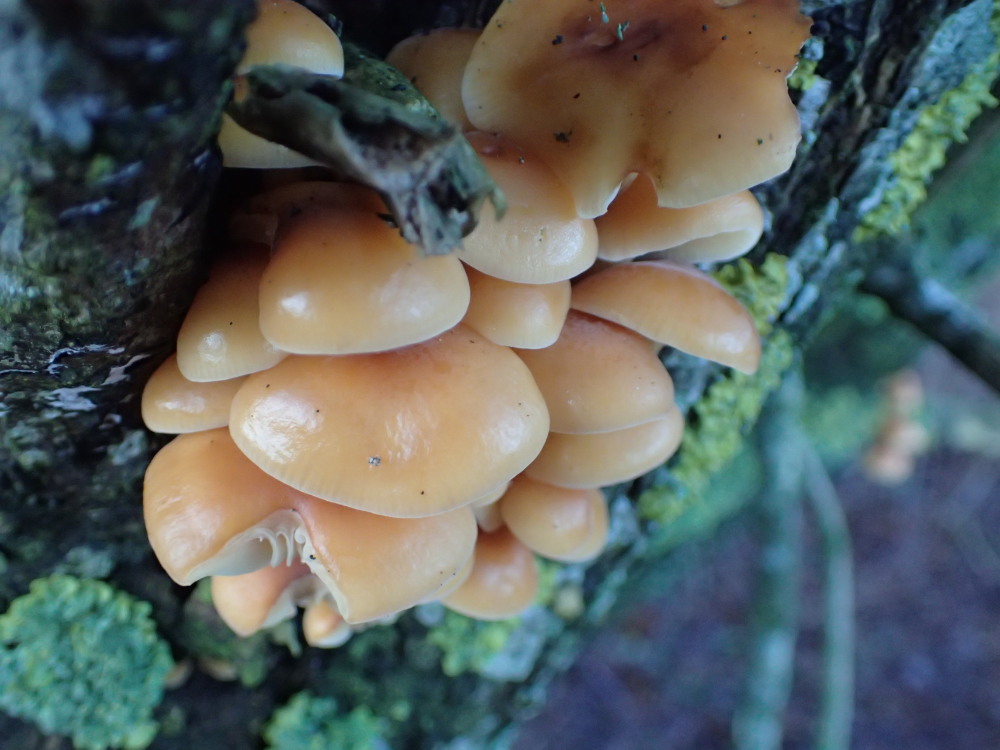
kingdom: Fungi
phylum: Basidiomycota
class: Agaricomycetes
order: Agaricales
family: Physalacriaceae
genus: Flammulina
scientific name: Flammulina
